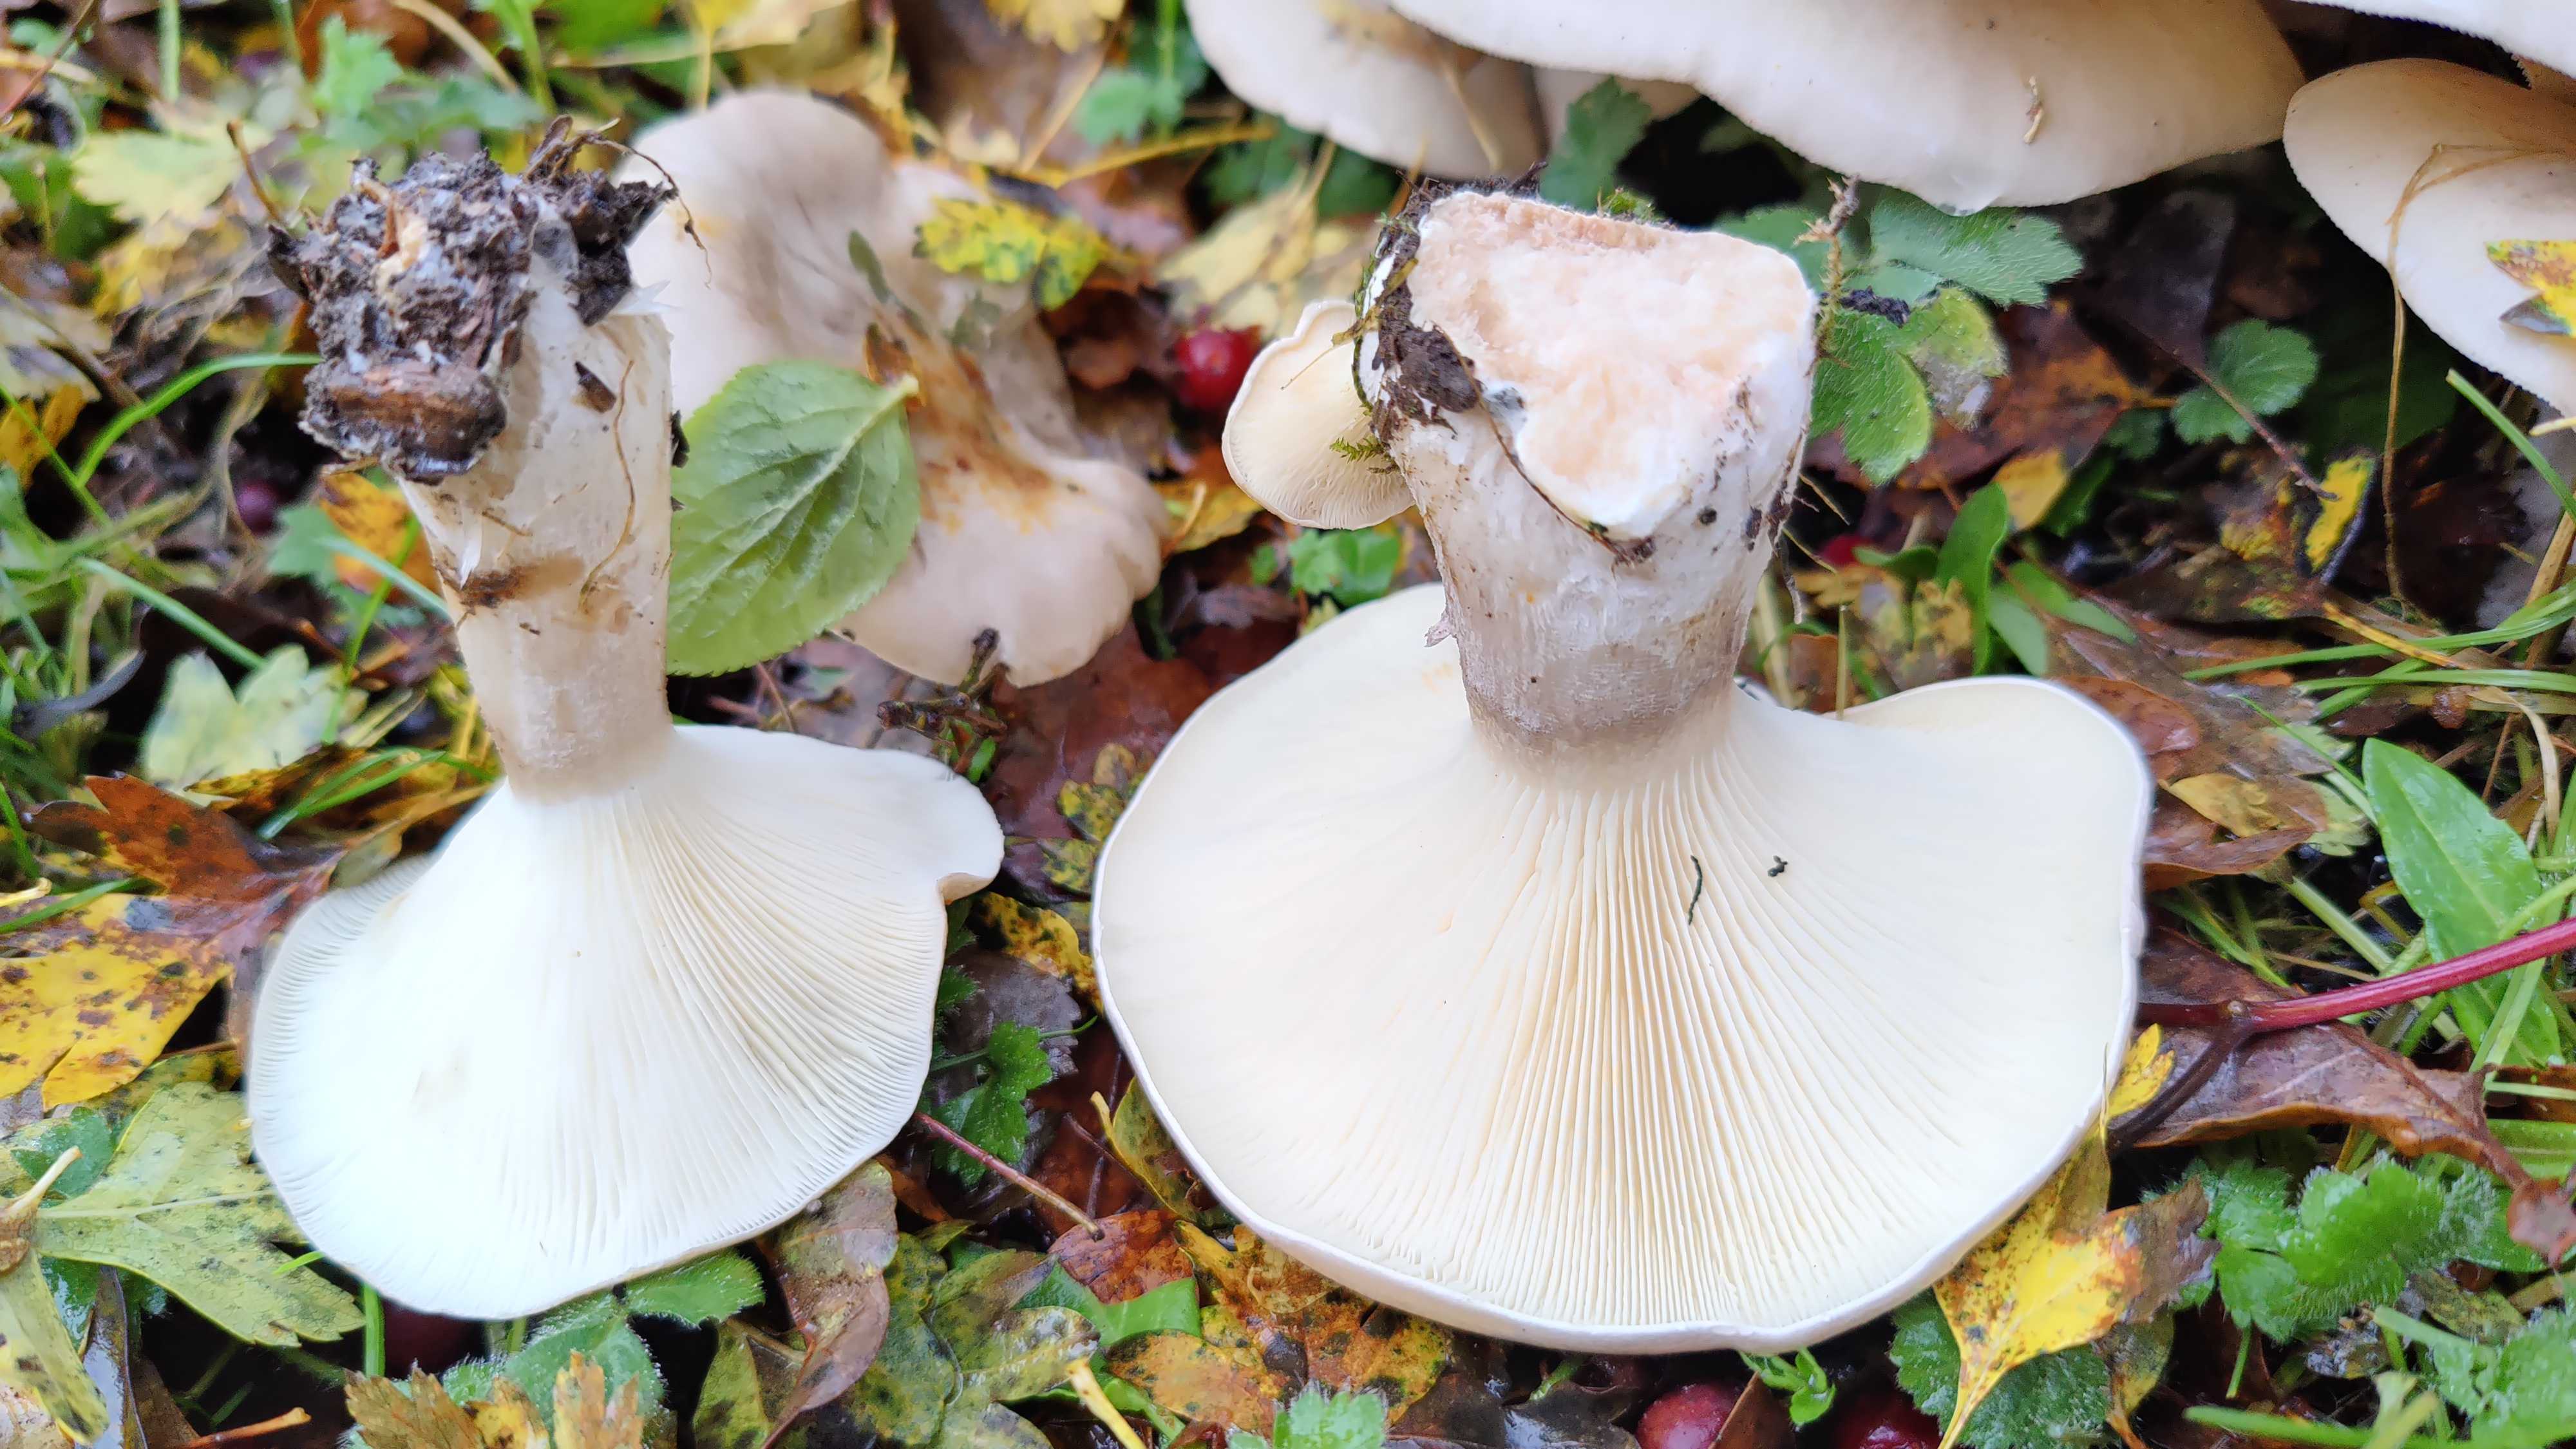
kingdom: Fungi
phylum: Basidiomycota
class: Agaricomycetes
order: Agaricales
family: Tricholomataceae
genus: Clitocybe
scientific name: Clitocybe nebularis
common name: tåge-tragthat
